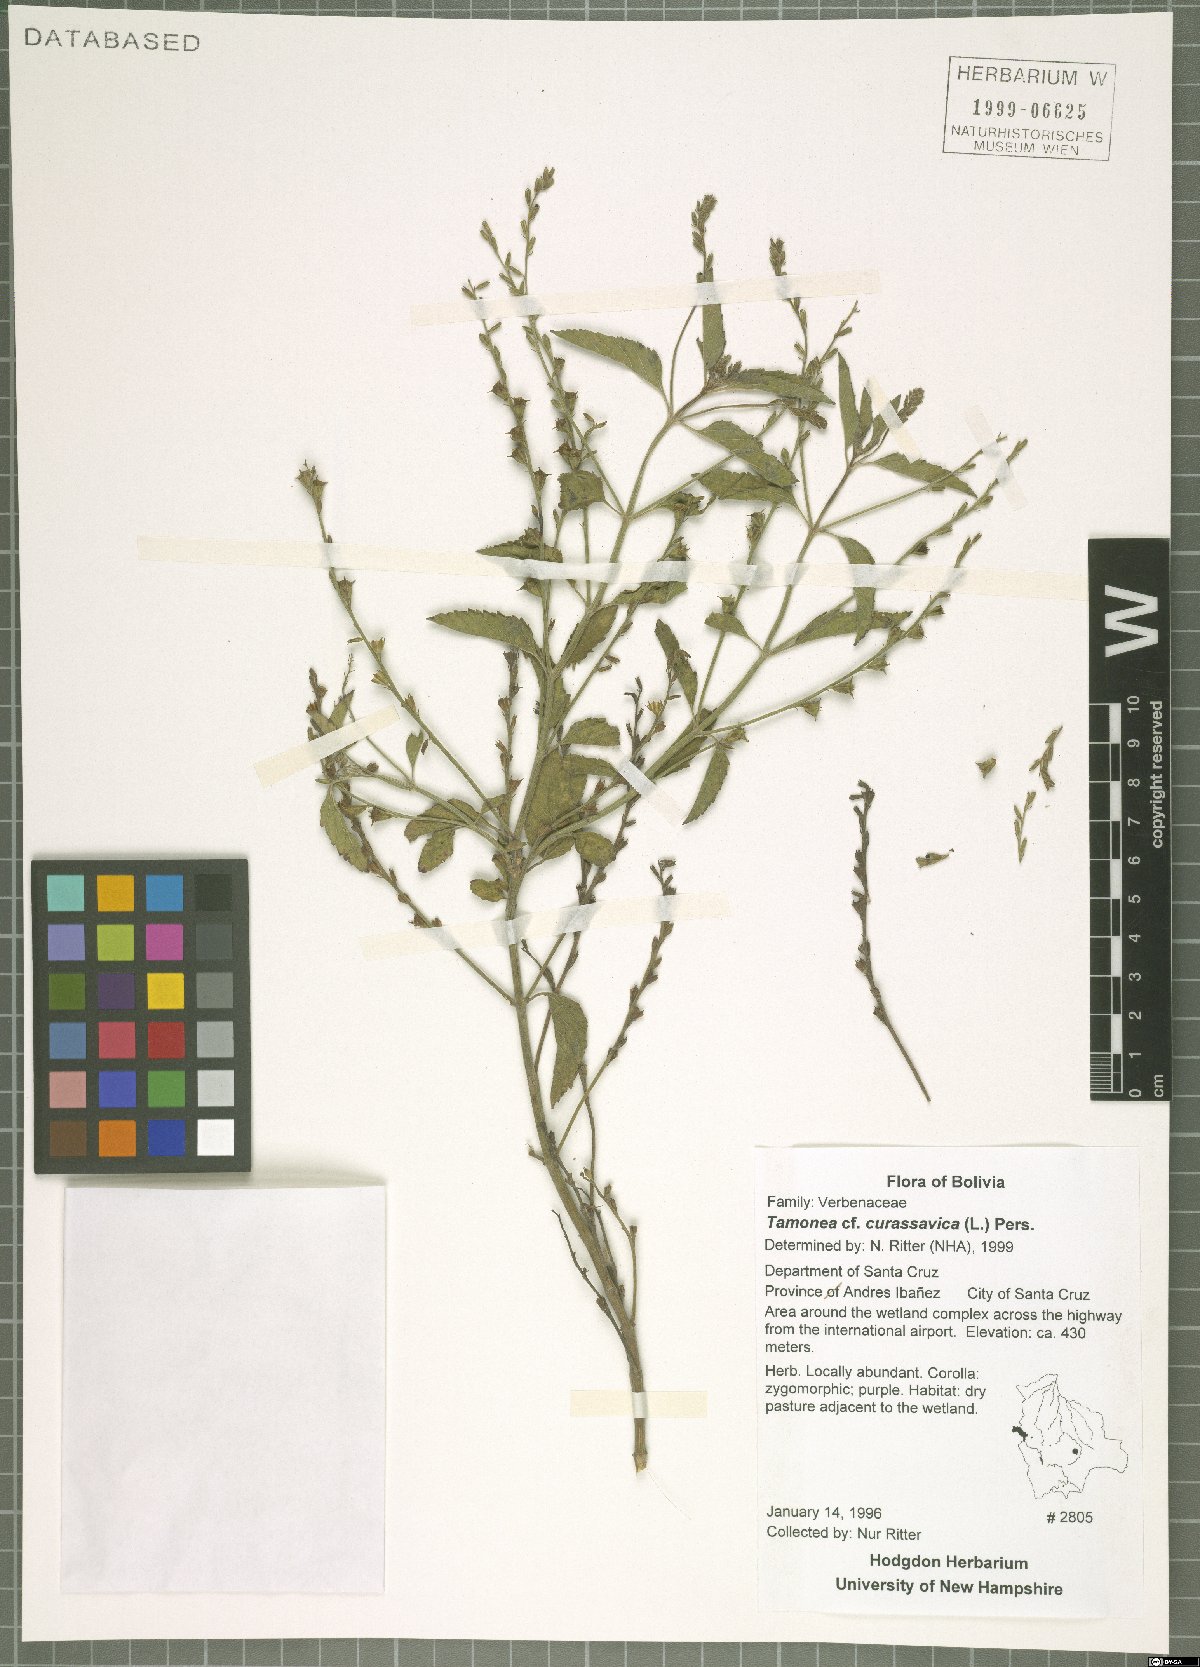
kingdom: Plantae
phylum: Tracheophyta
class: Magnoliopsida
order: Lamiales
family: Verbenaceae
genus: Tamonea
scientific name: Tamonea curassavica
